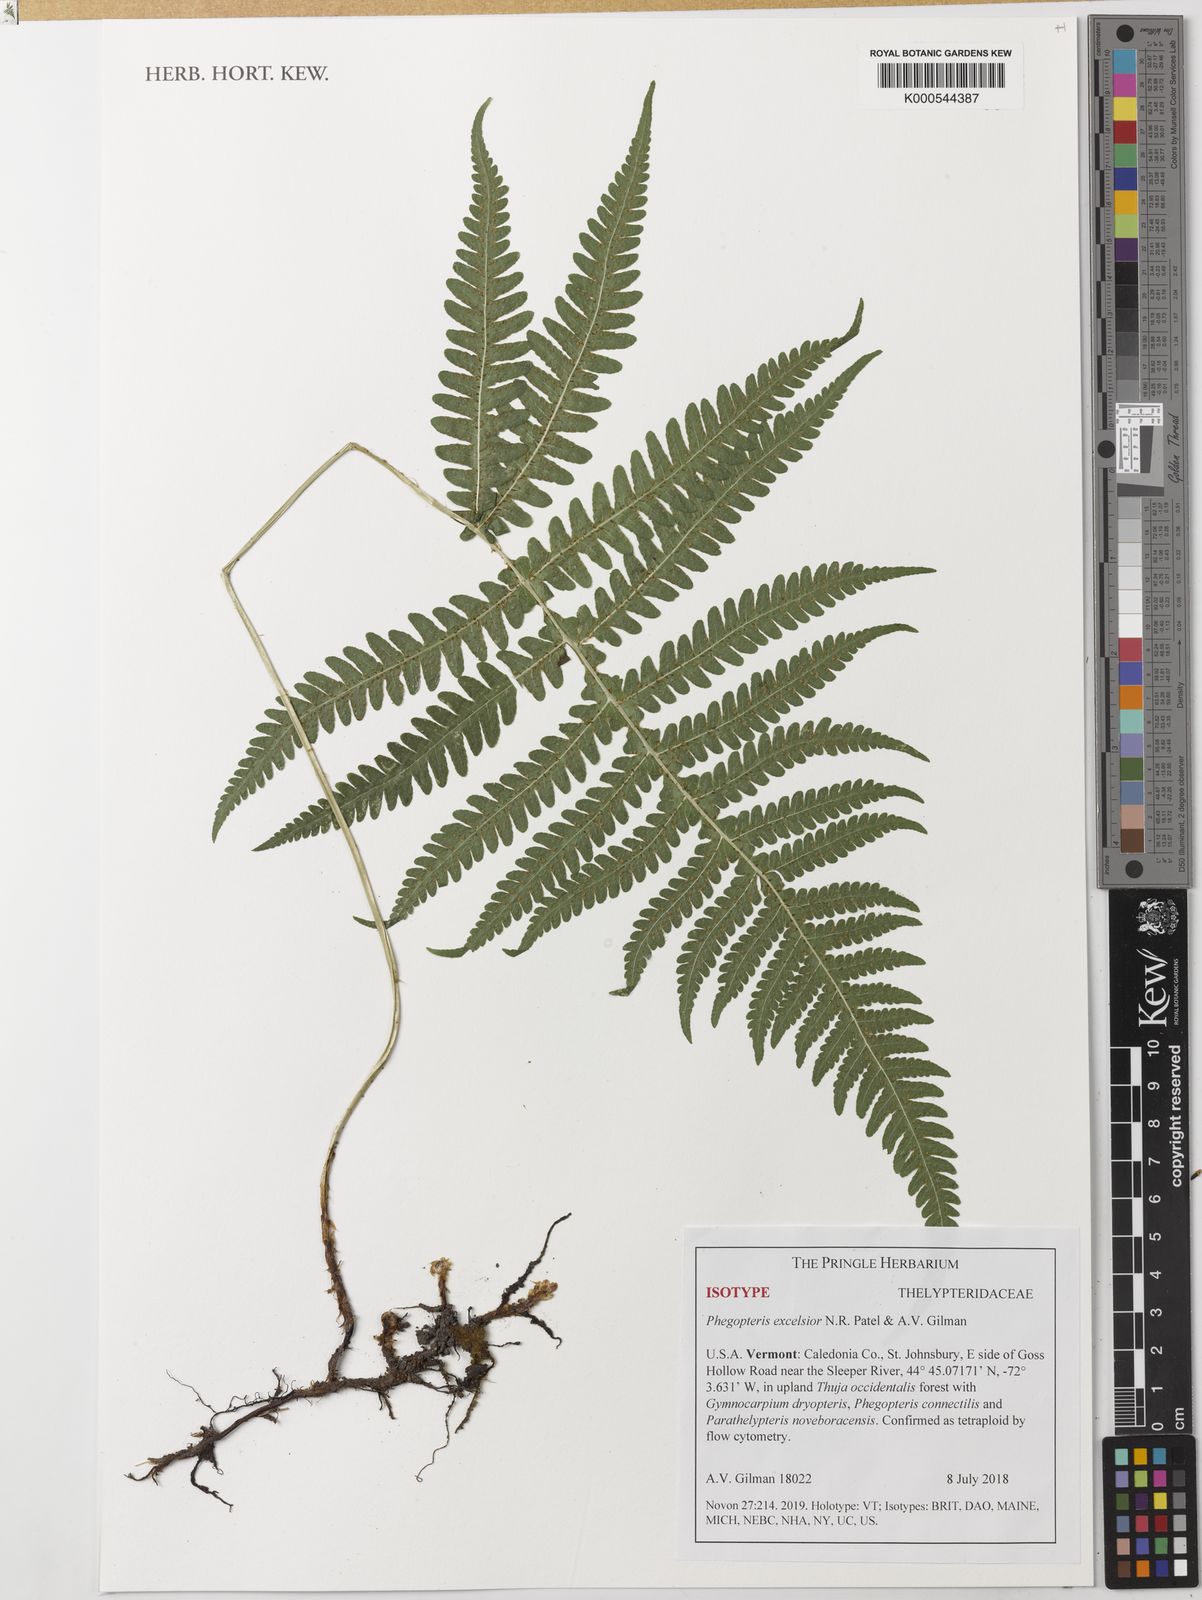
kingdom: Plantae
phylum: Tracheophyta
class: Polypodiopsida
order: Polypodiales
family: Thelypteridaceae
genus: Phegopteris
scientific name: Phegopteris
